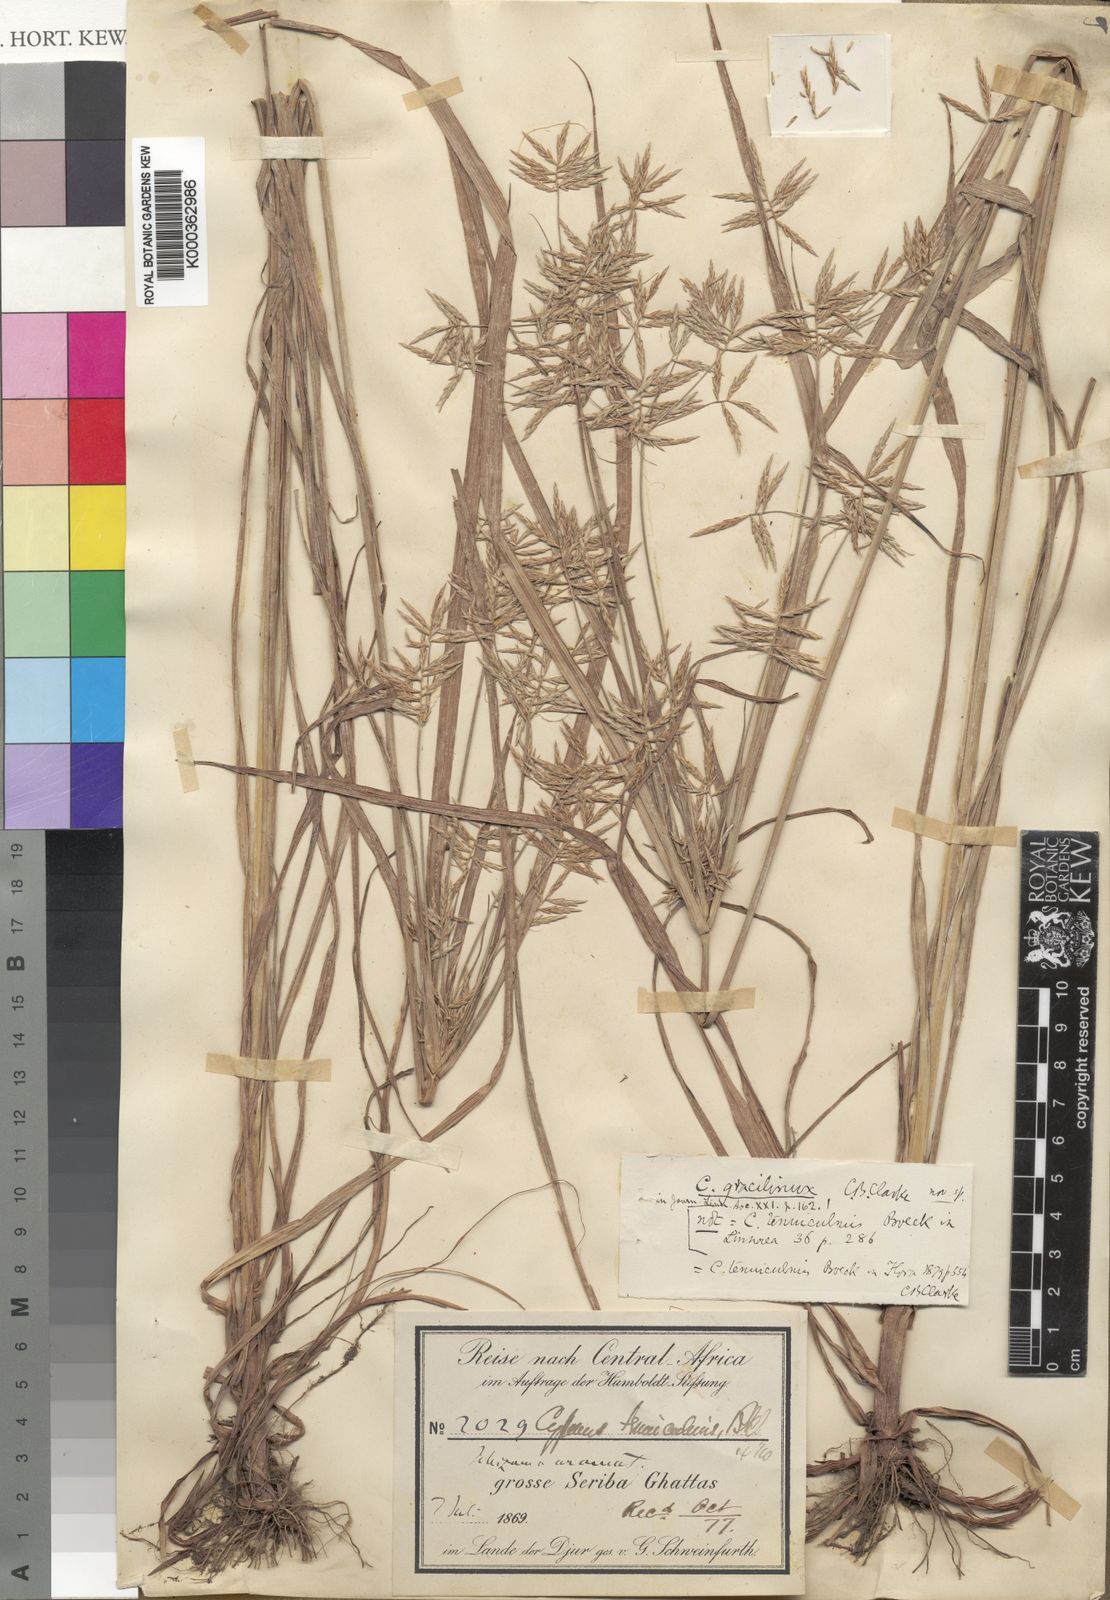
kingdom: Plantae
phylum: Tracheophyta
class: Liliopsida
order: Poales
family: Cyperaceae
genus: Cyperus
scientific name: Cyperus dilatatus
